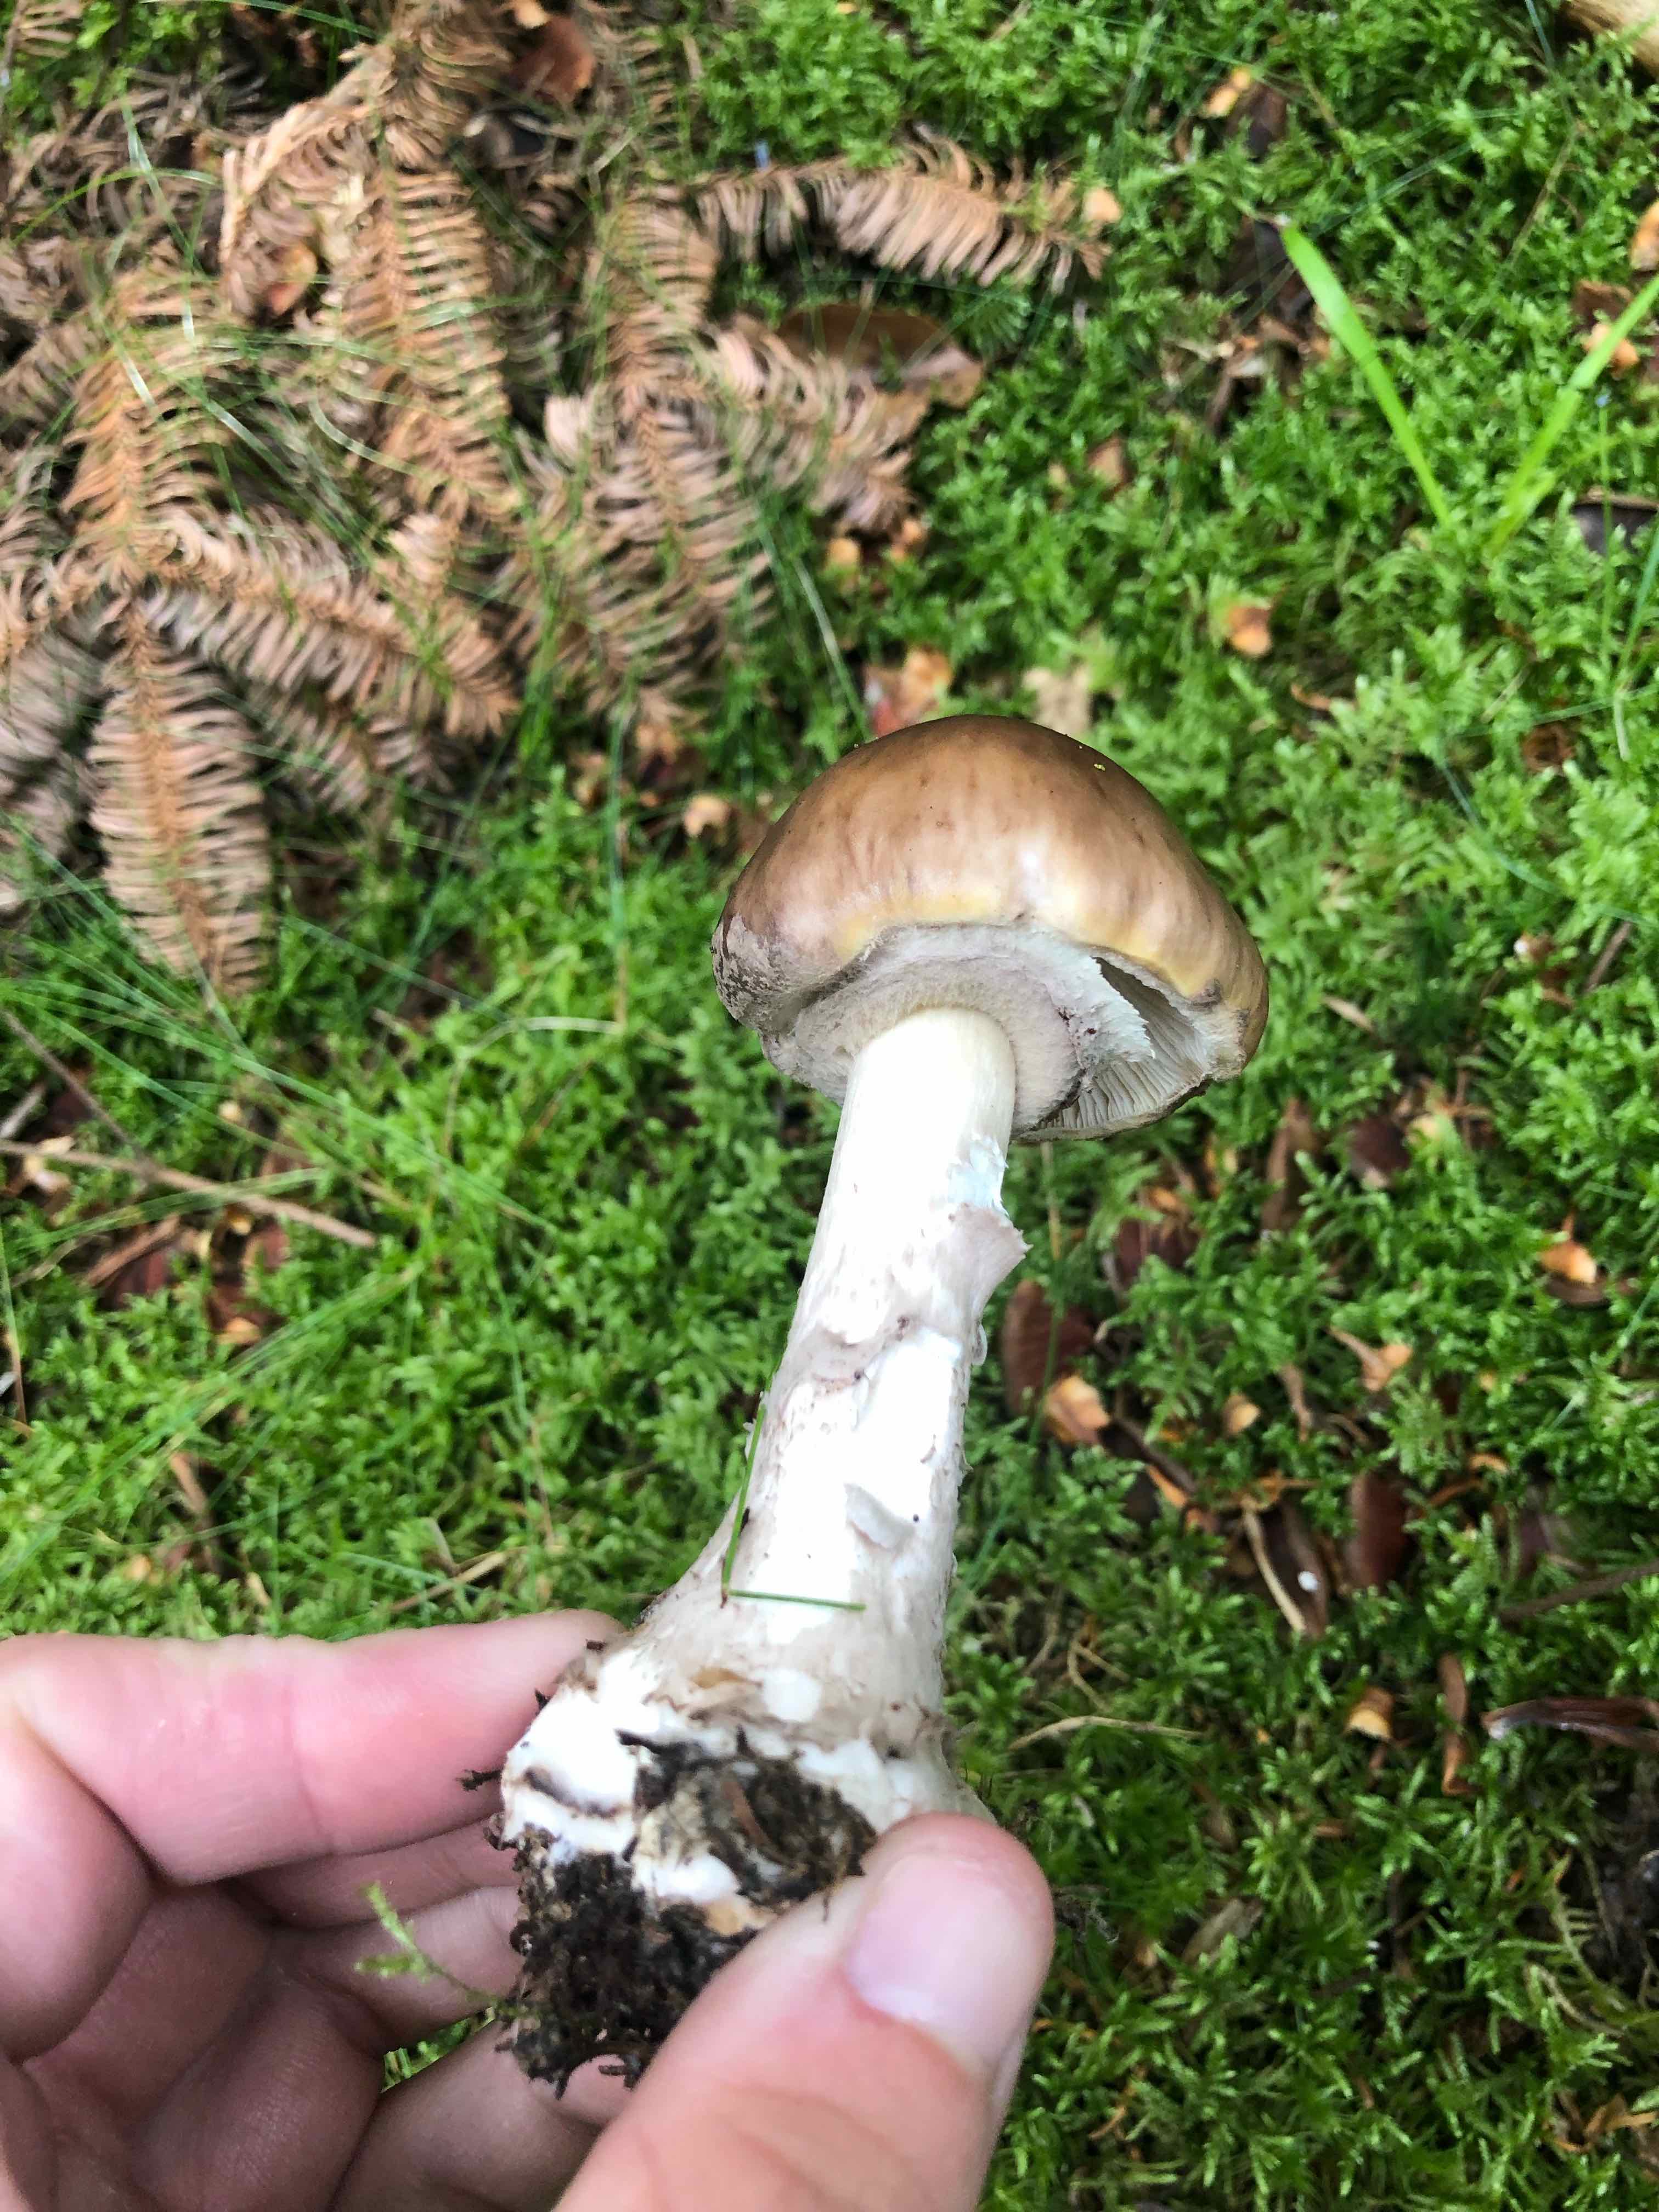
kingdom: Fungi
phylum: Basidiomycota
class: Agaricomycetes
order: Agaricales
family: Amanitaceae
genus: Amanita
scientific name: Amanita porphyria
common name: porfyr-fluesvamp
